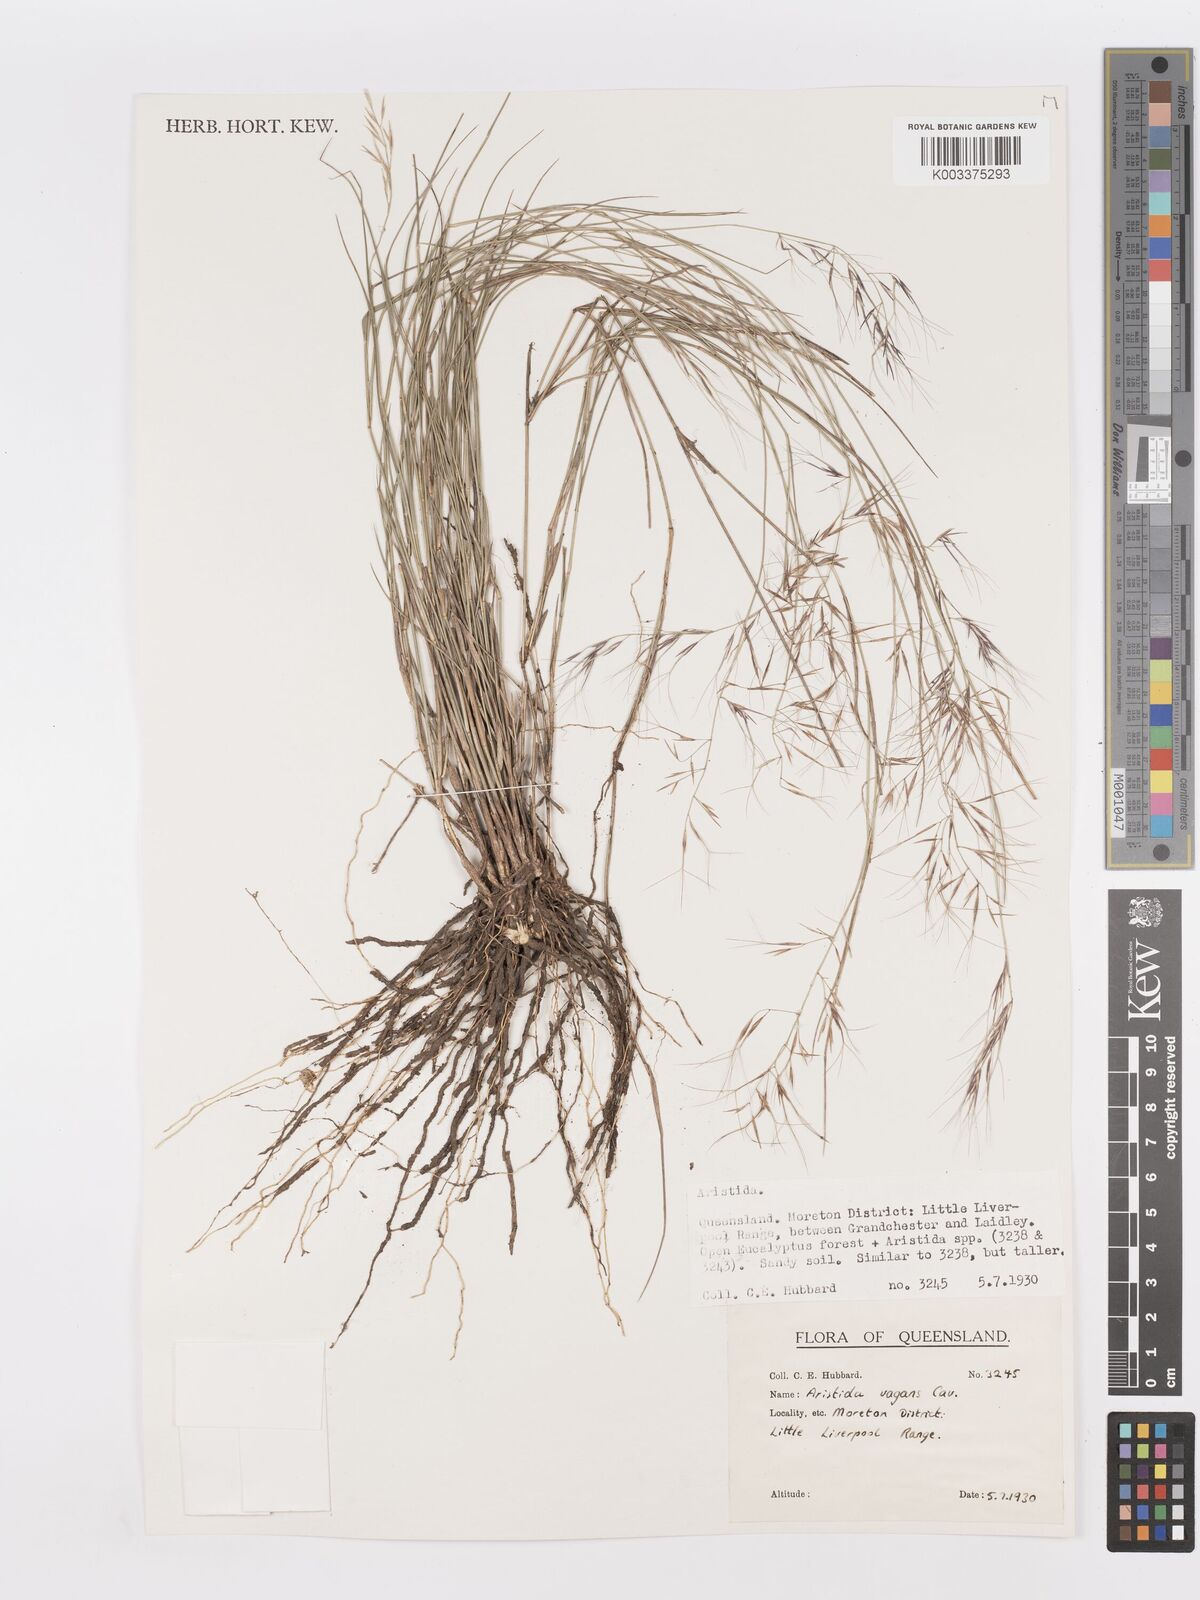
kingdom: Plantae
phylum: Tracheophyta
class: Liliopsida
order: Poales
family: Poaceae
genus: Aristida
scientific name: Aristida vagans
